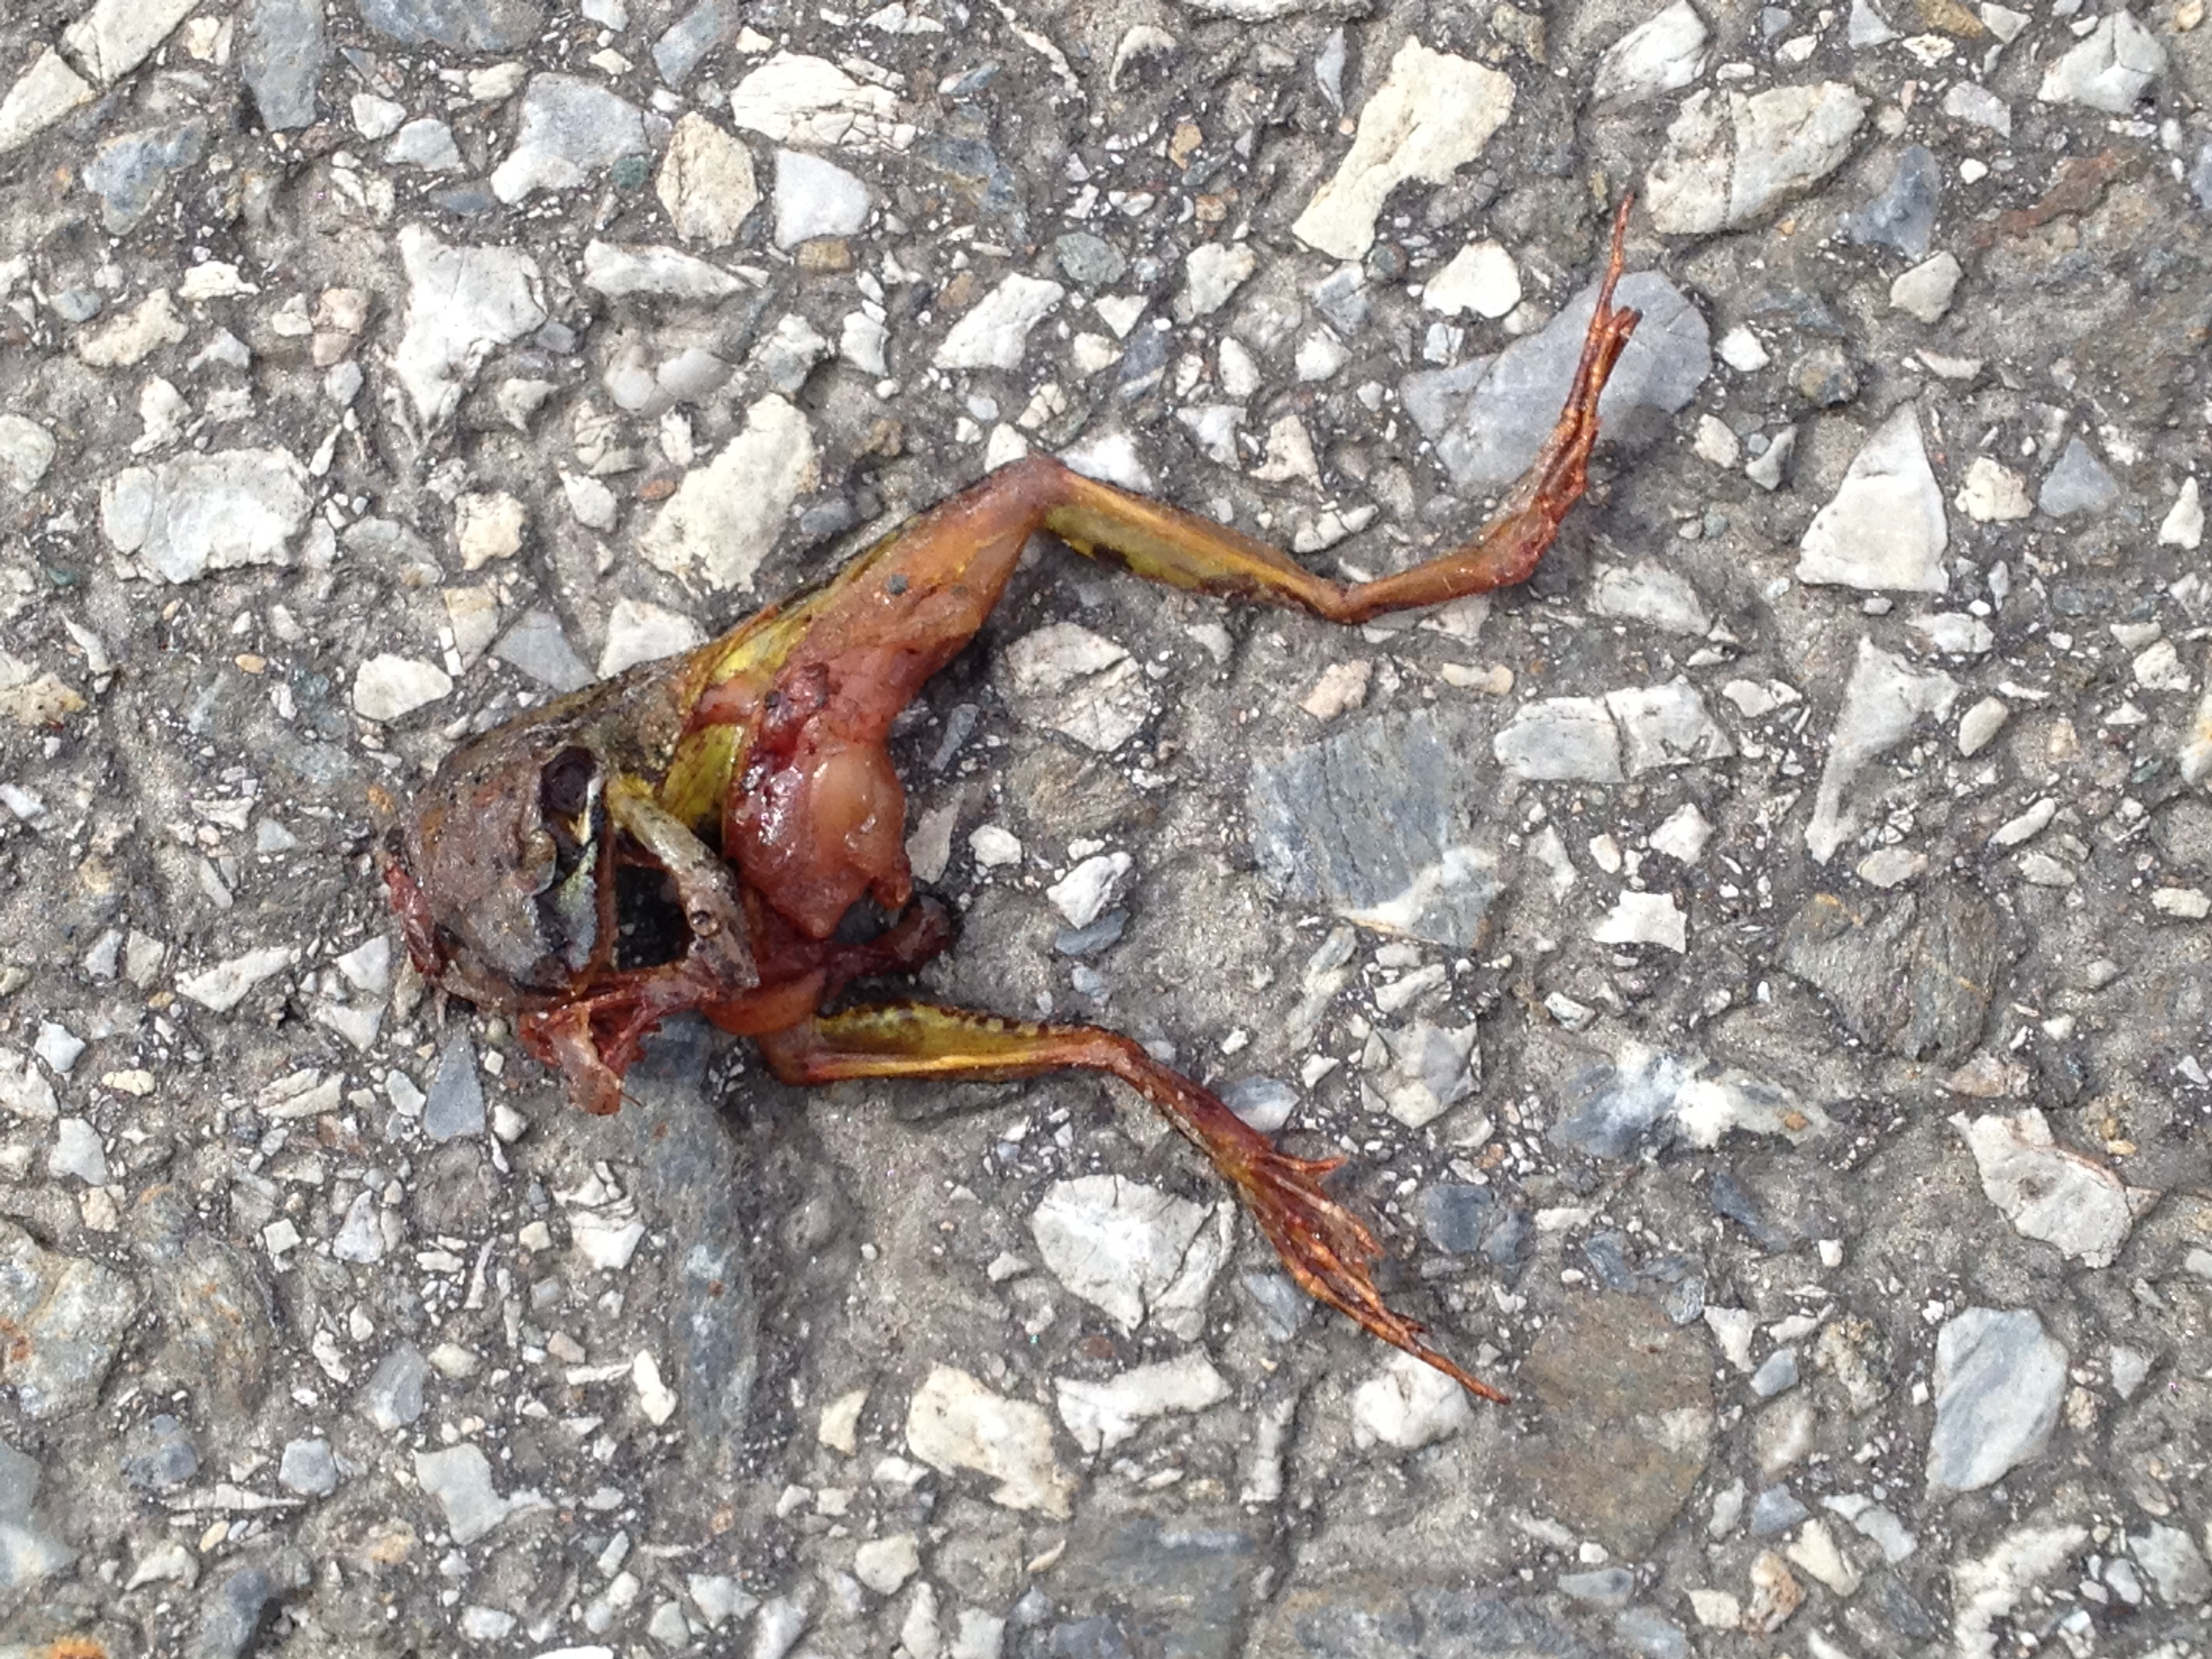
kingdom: Animalia
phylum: Chordata
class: Amphibia
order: Anura
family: Ranidae
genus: Rana
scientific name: Rana temporaria
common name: Common frog
